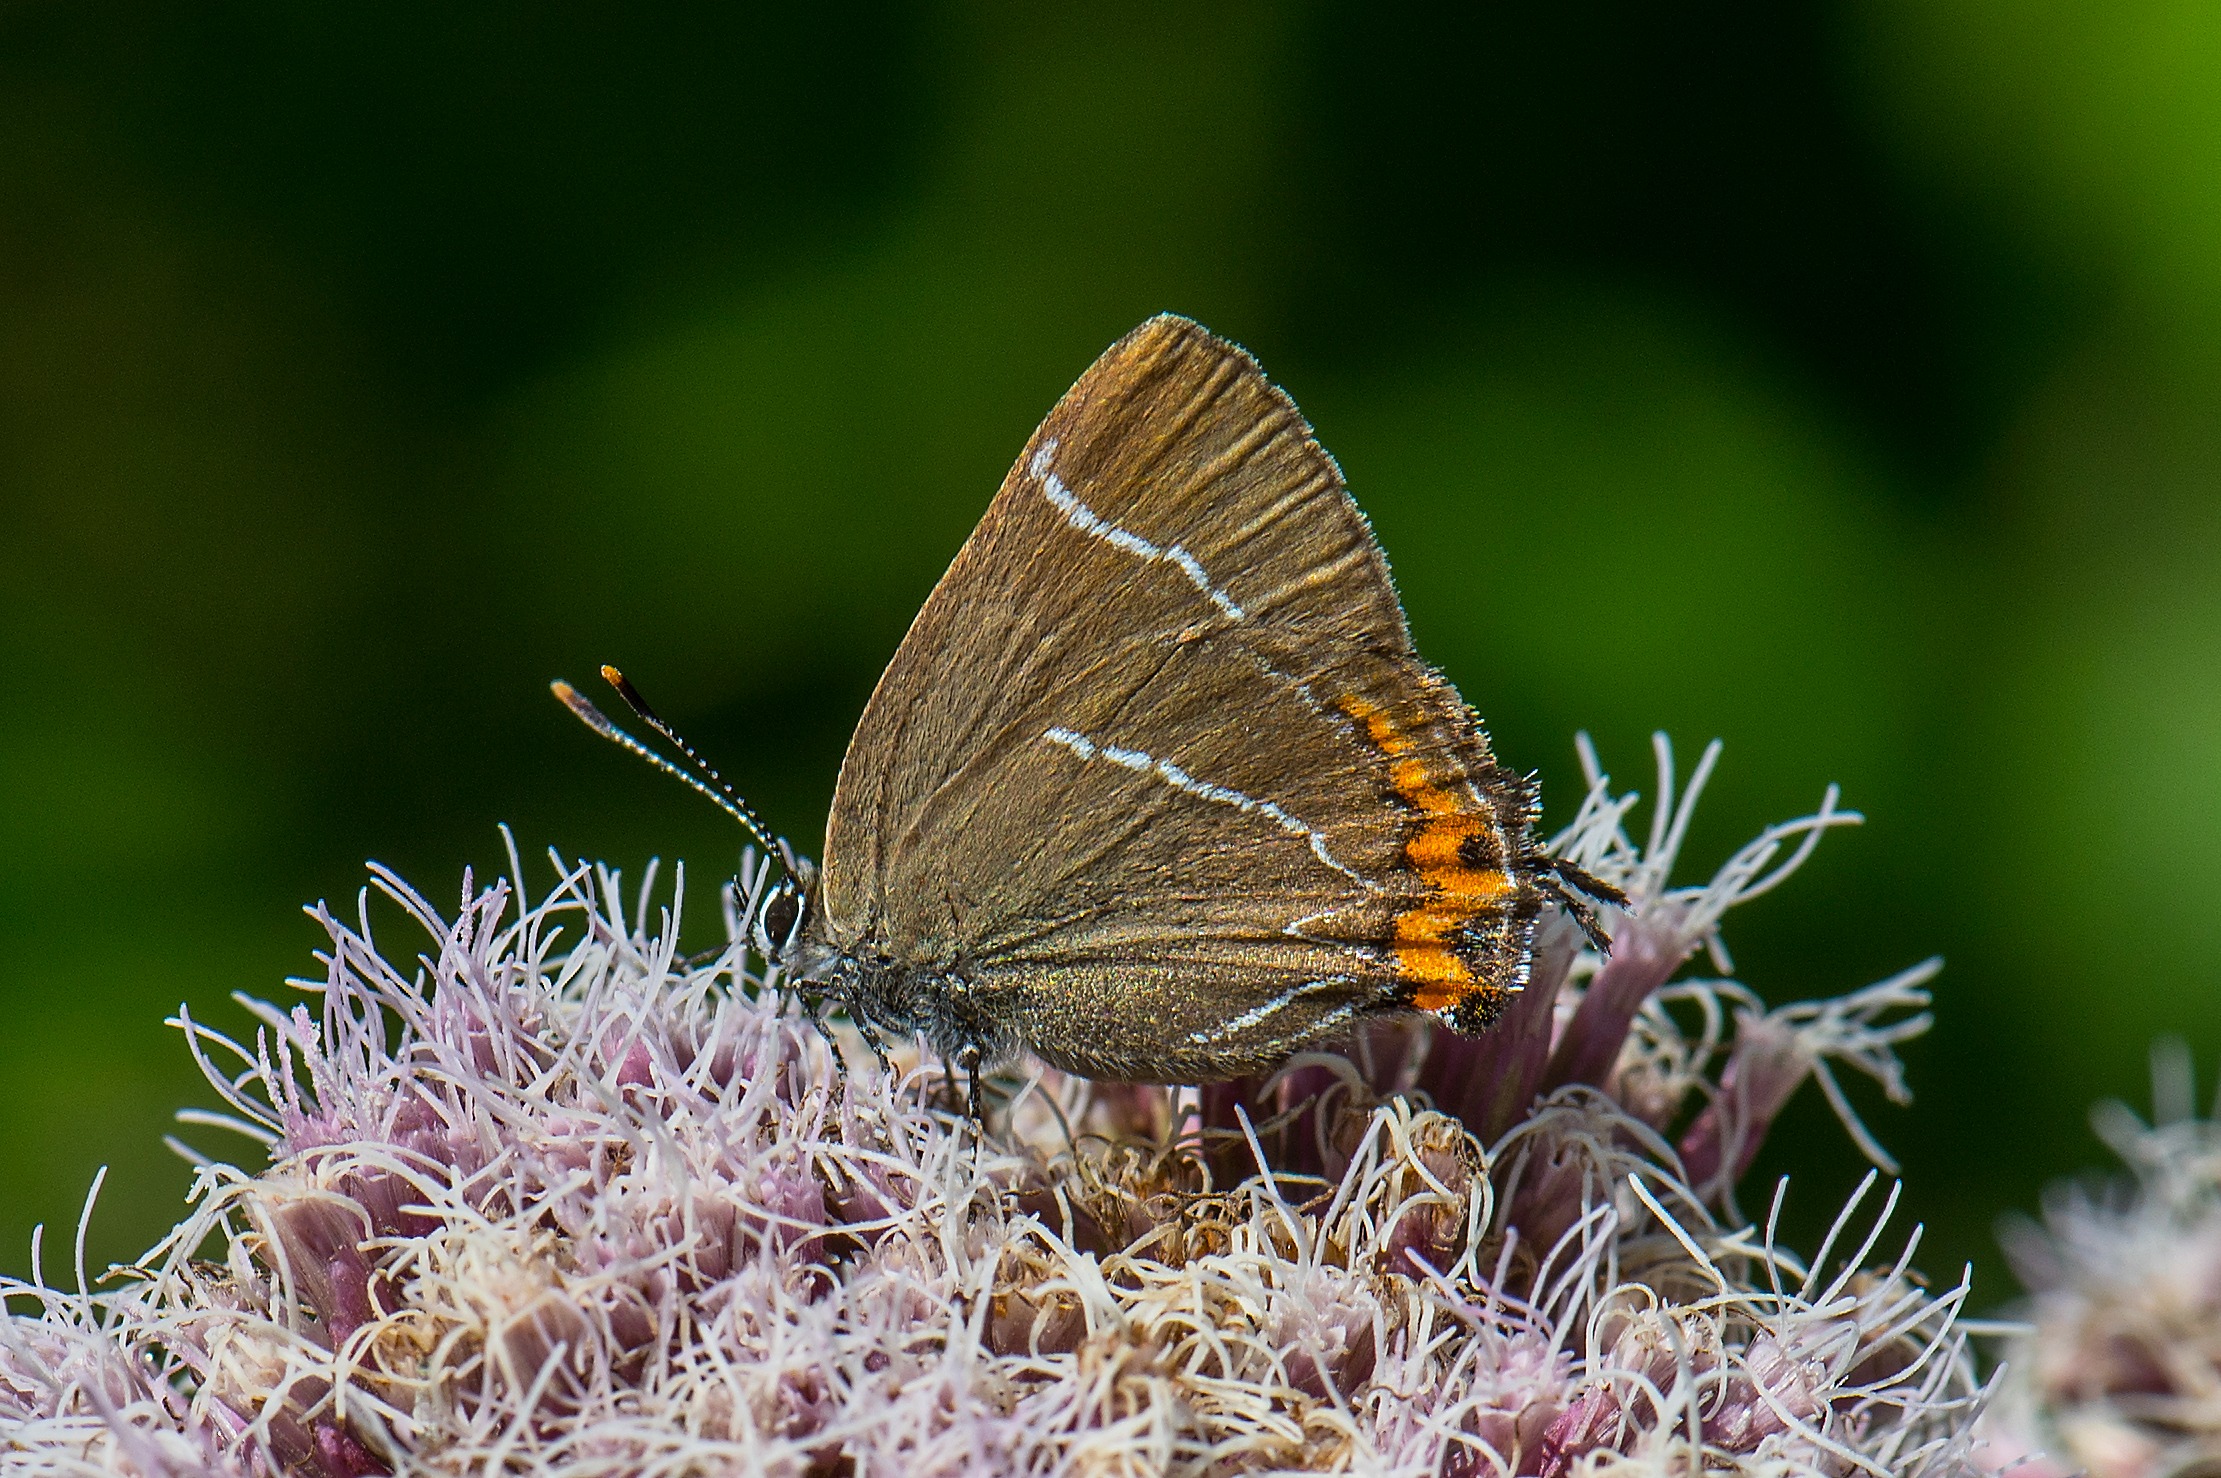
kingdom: Animalia
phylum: Arthropoda
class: Insecta
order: Lepidoptera
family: Lycaenidae
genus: Satyrium
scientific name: Satyrium w-album
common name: Det hvide W
